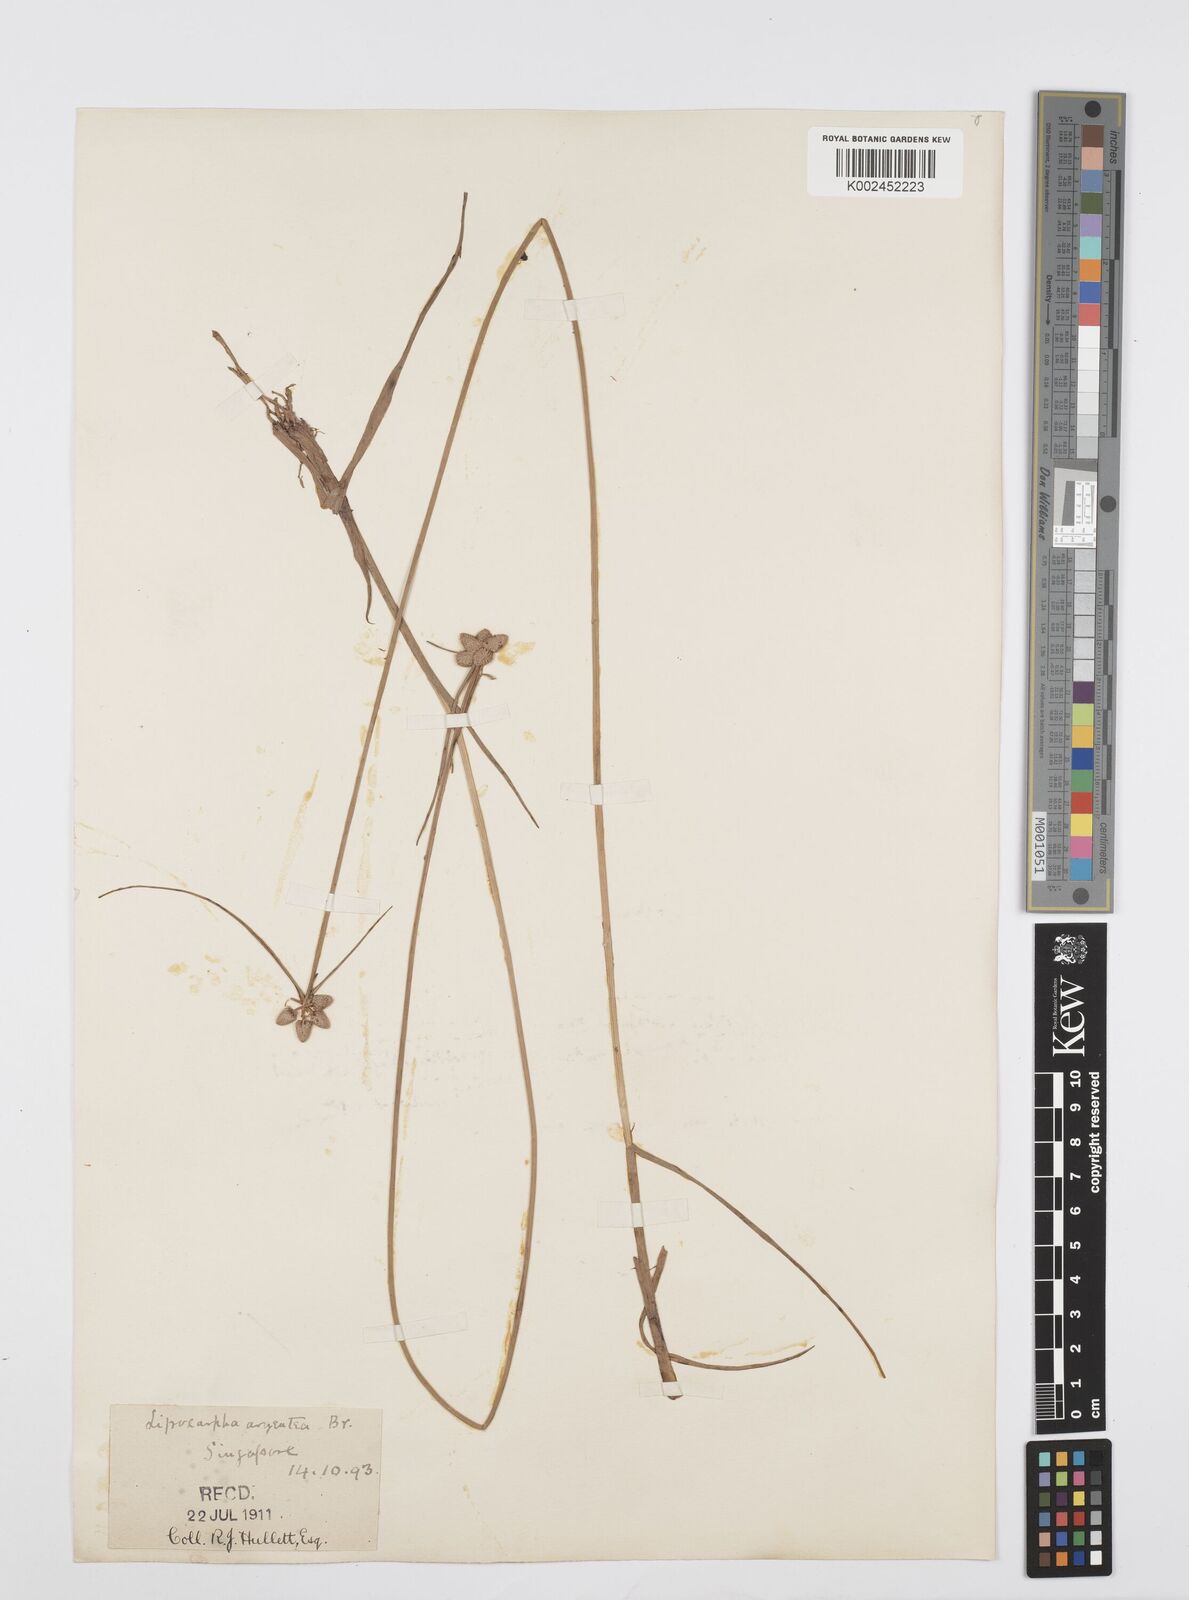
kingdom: Plantae
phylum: Tracheophyta
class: Liliopsida
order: Poales
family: Cyperaceae
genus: Cyperus
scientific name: Cyperus
